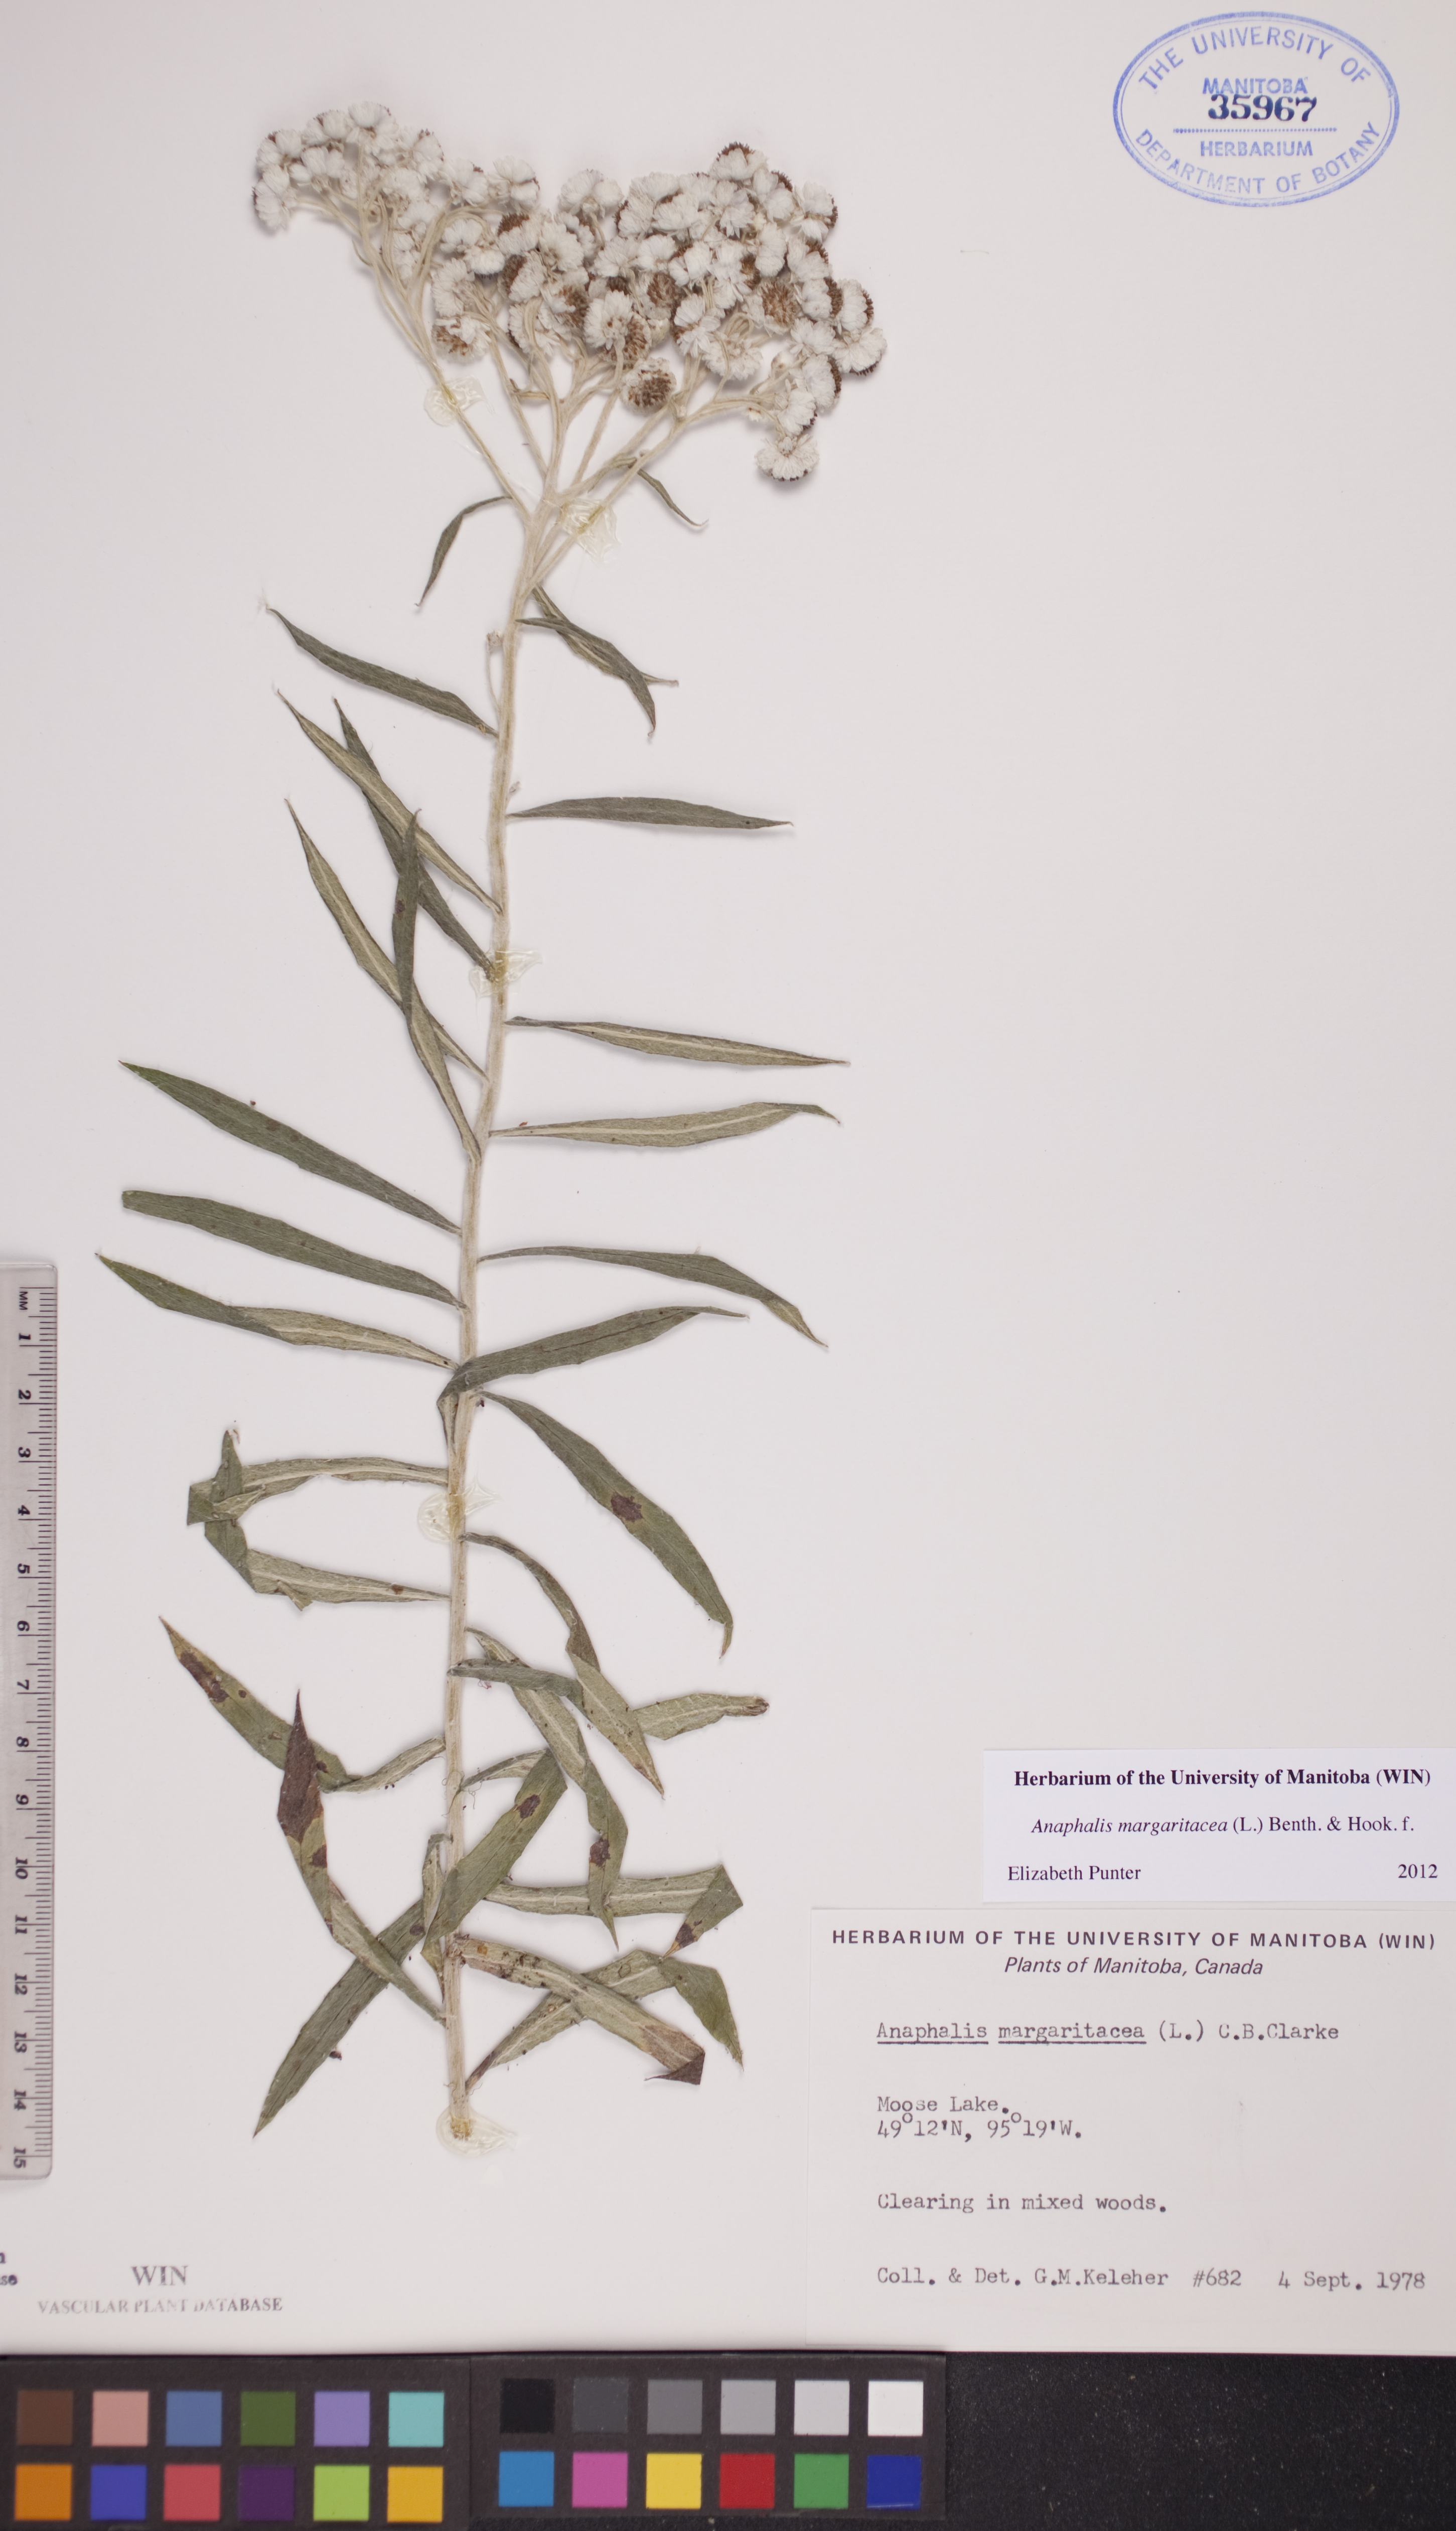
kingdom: Plantae
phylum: Tracheophyta
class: Magnoliopsida
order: Asterales
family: Asteraceae
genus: Anaphalis
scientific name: Anaphalis margaritacea
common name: Pearly everlasting
